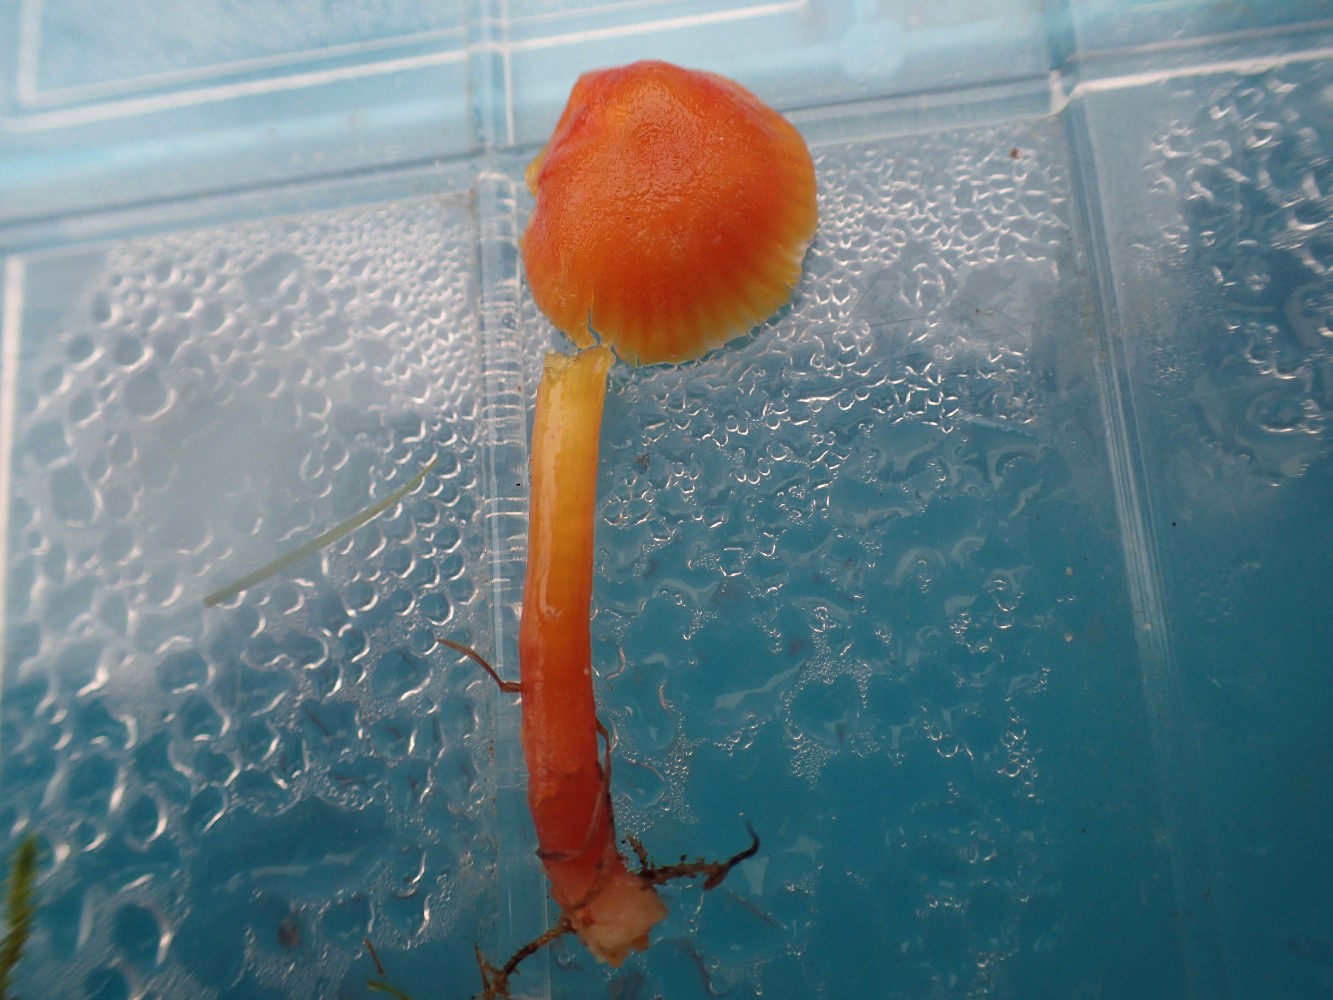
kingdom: Fungi
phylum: Basidiomycota
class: Agaricomycetes
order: Agaricales
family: Hygrophoraceae
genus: Hygrocybe
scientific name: Hygrocybe insipida
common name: liden vokshat
